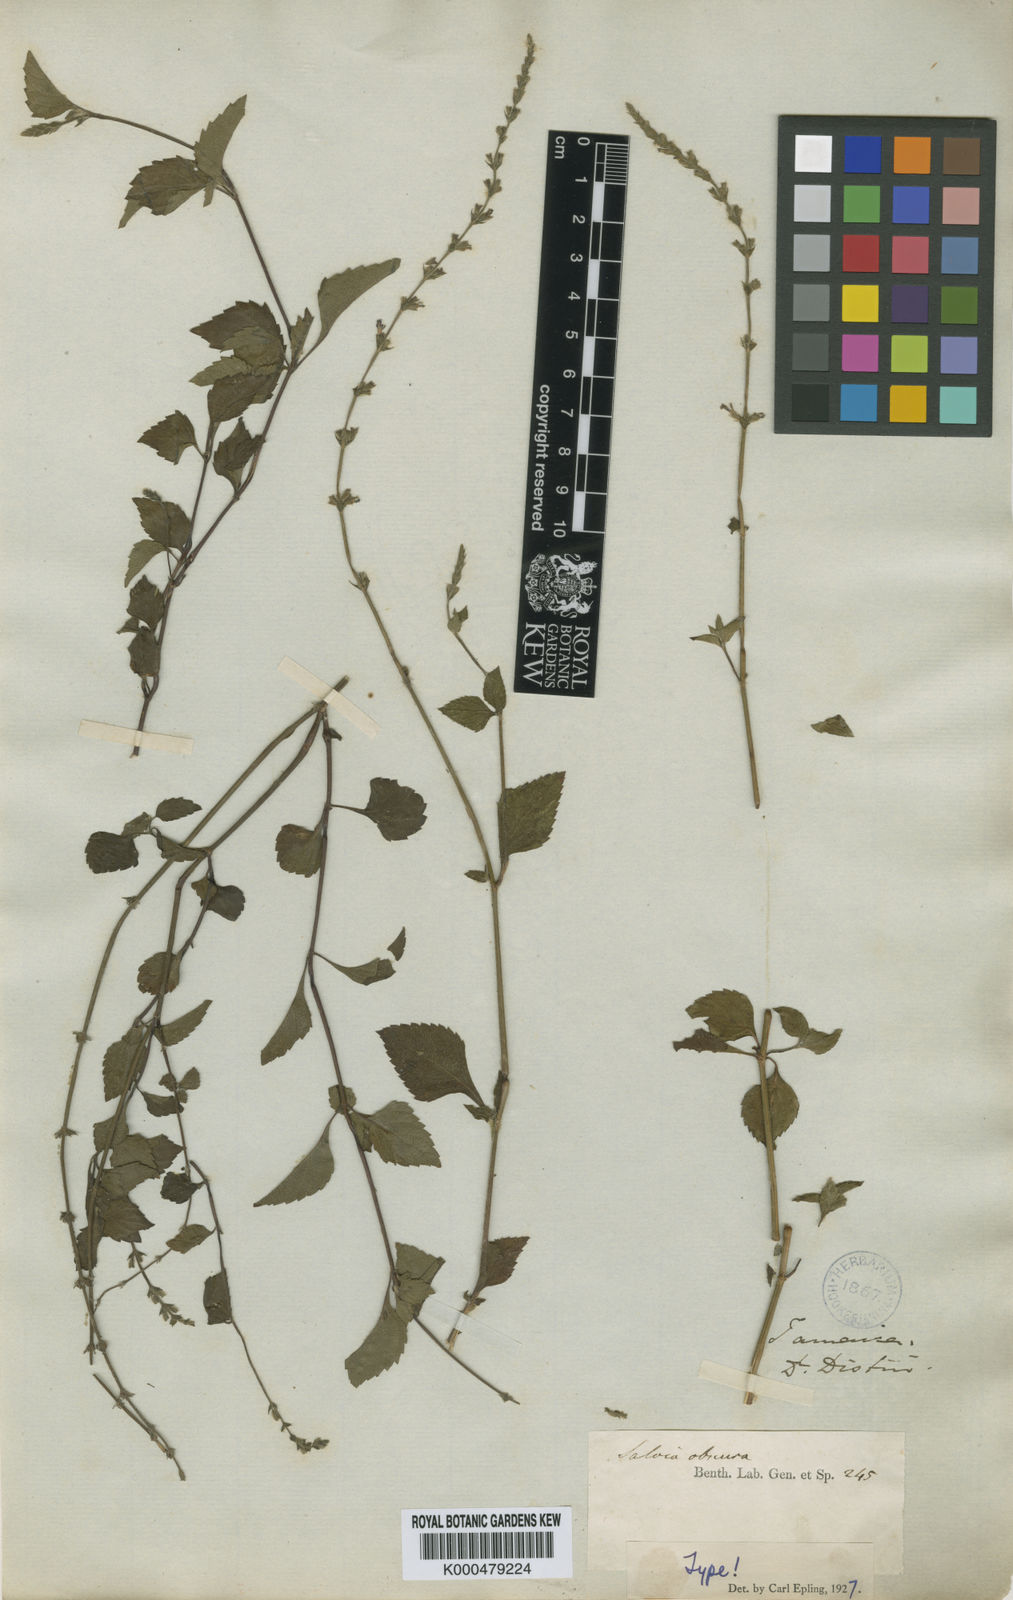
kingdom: Plantae
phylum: Tracheophyta
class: Magnoliopsida
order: Lamiales
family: Lamiaceae
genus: Salvia
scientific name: Salvia misella
